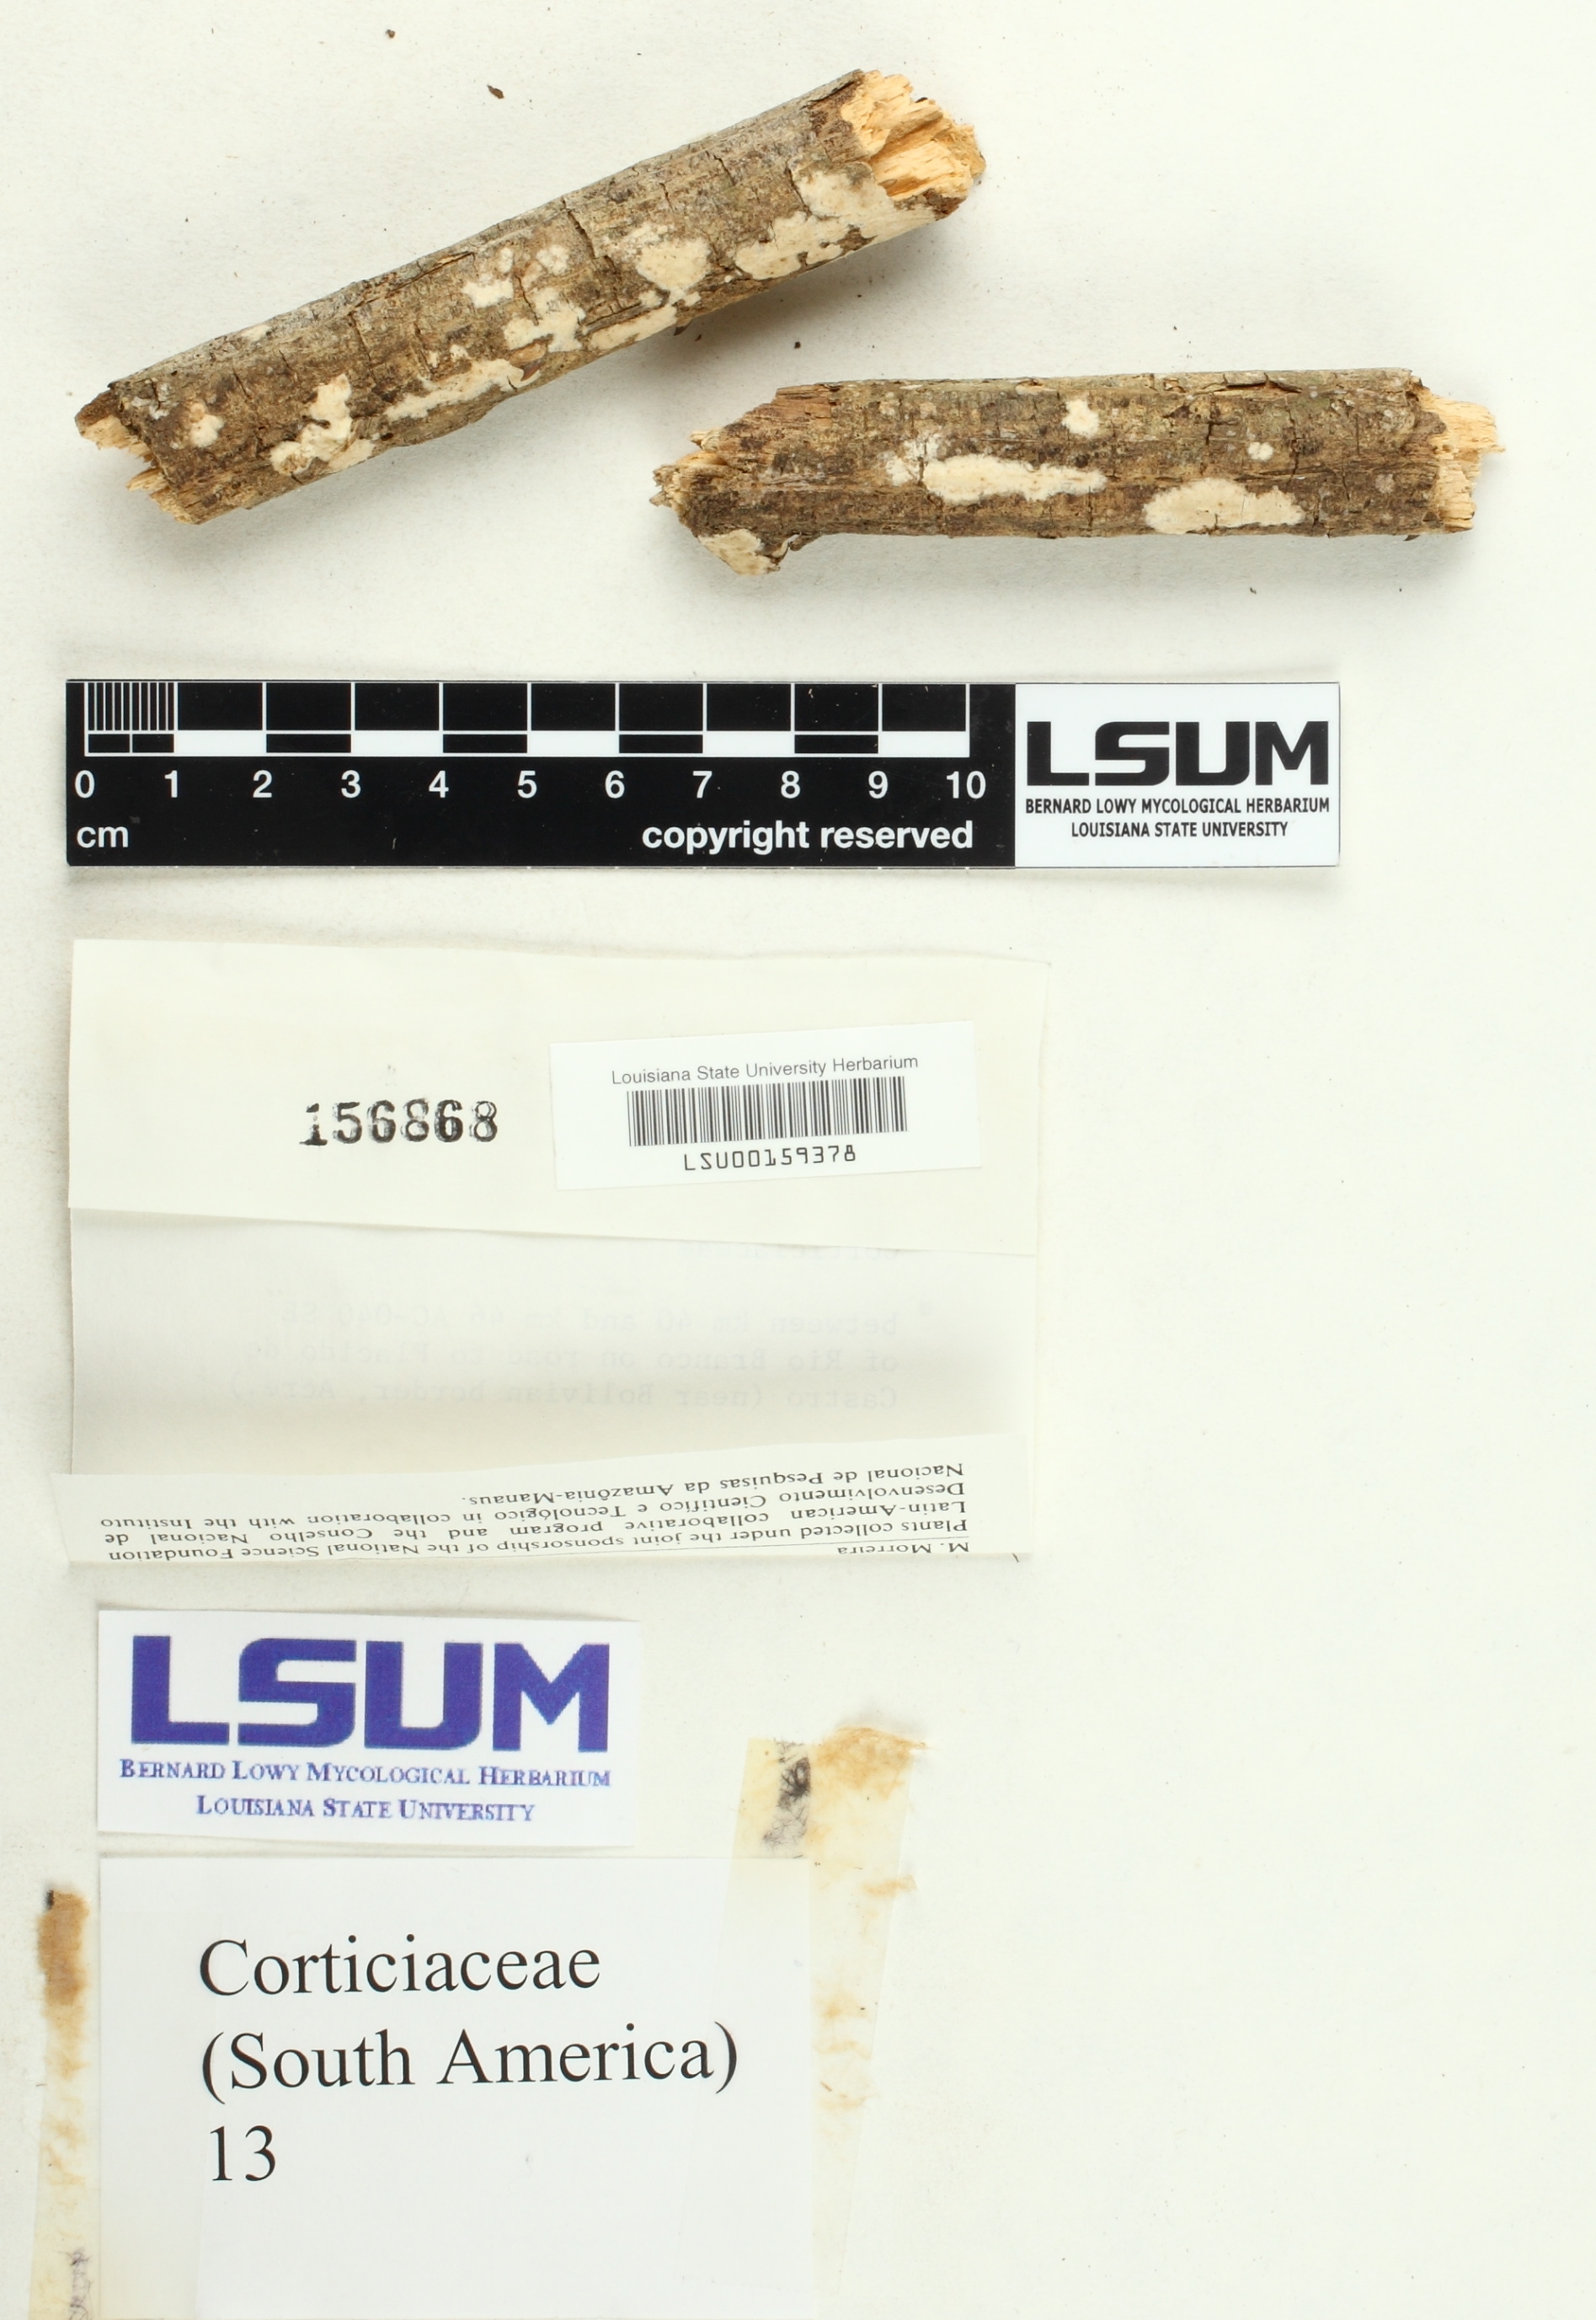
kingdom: Fungi
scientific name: Fungi
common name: Fungi
